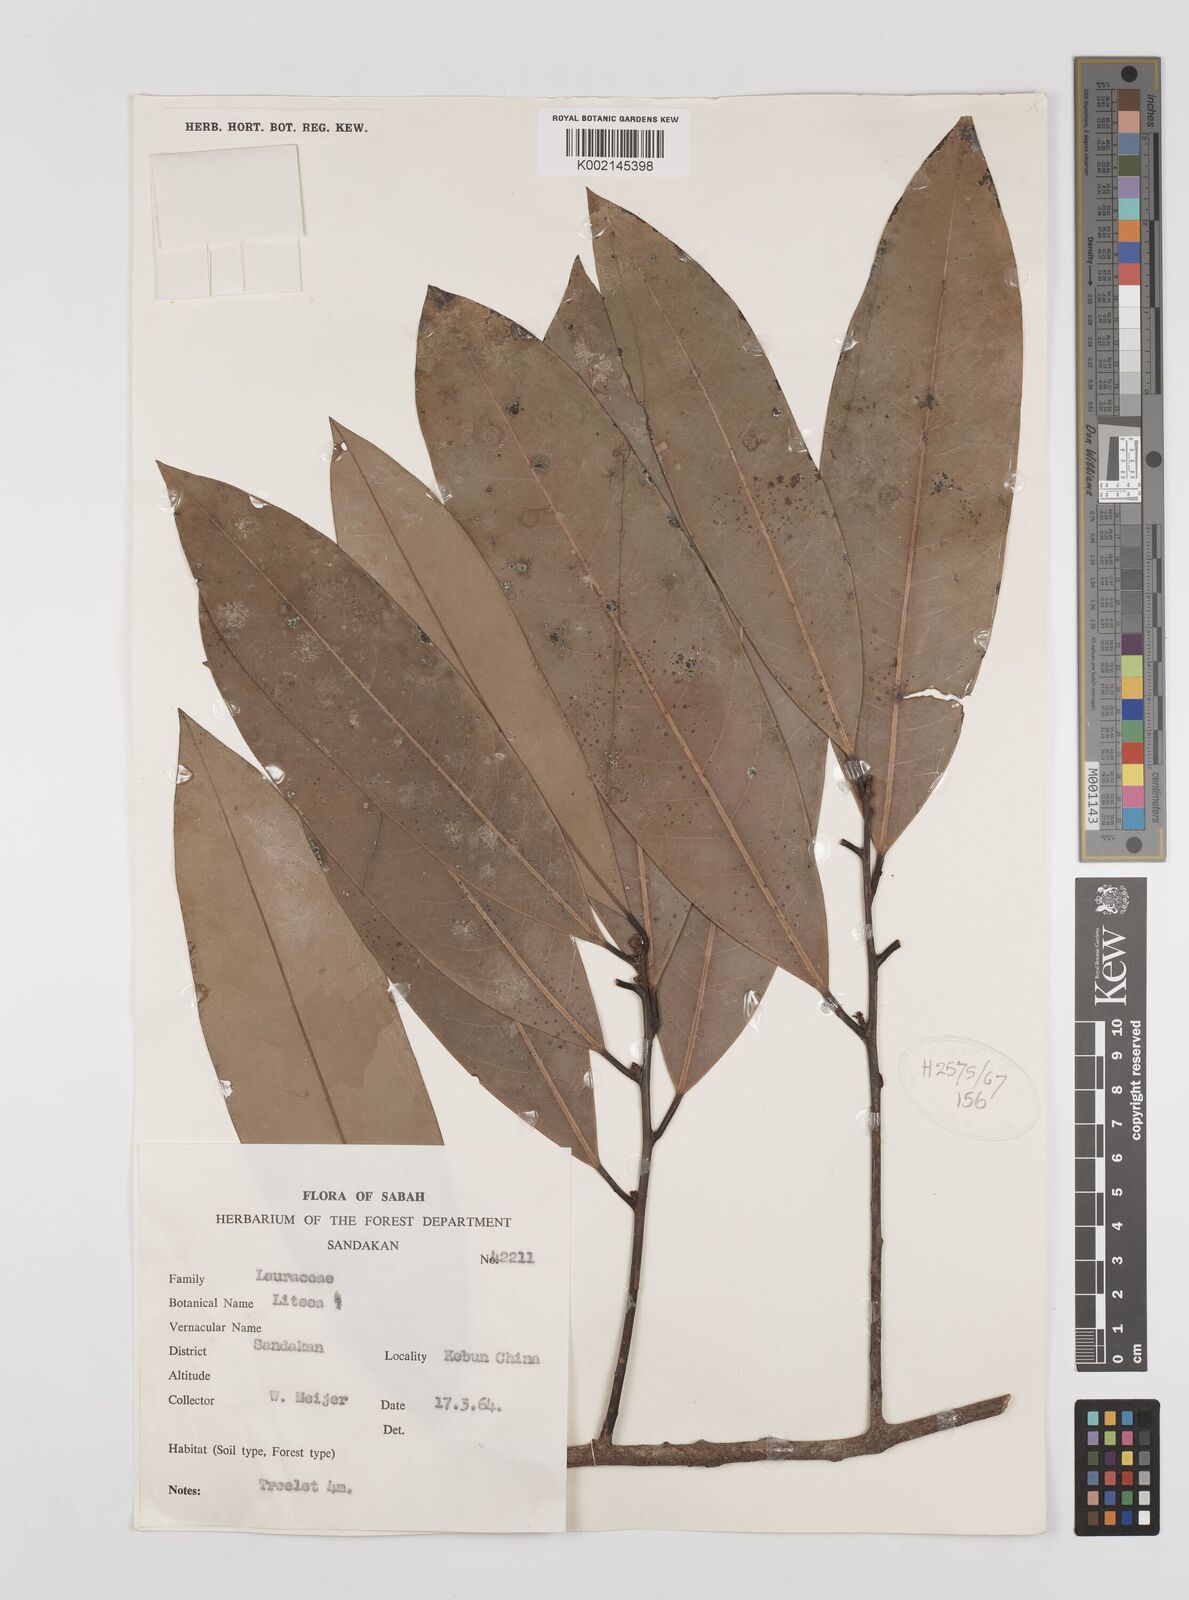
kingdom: Plantae
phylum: Tracheophyta
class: Magnoliopsida
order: Laurales
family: Lauraceae
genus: Litsea
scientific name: Litsea
